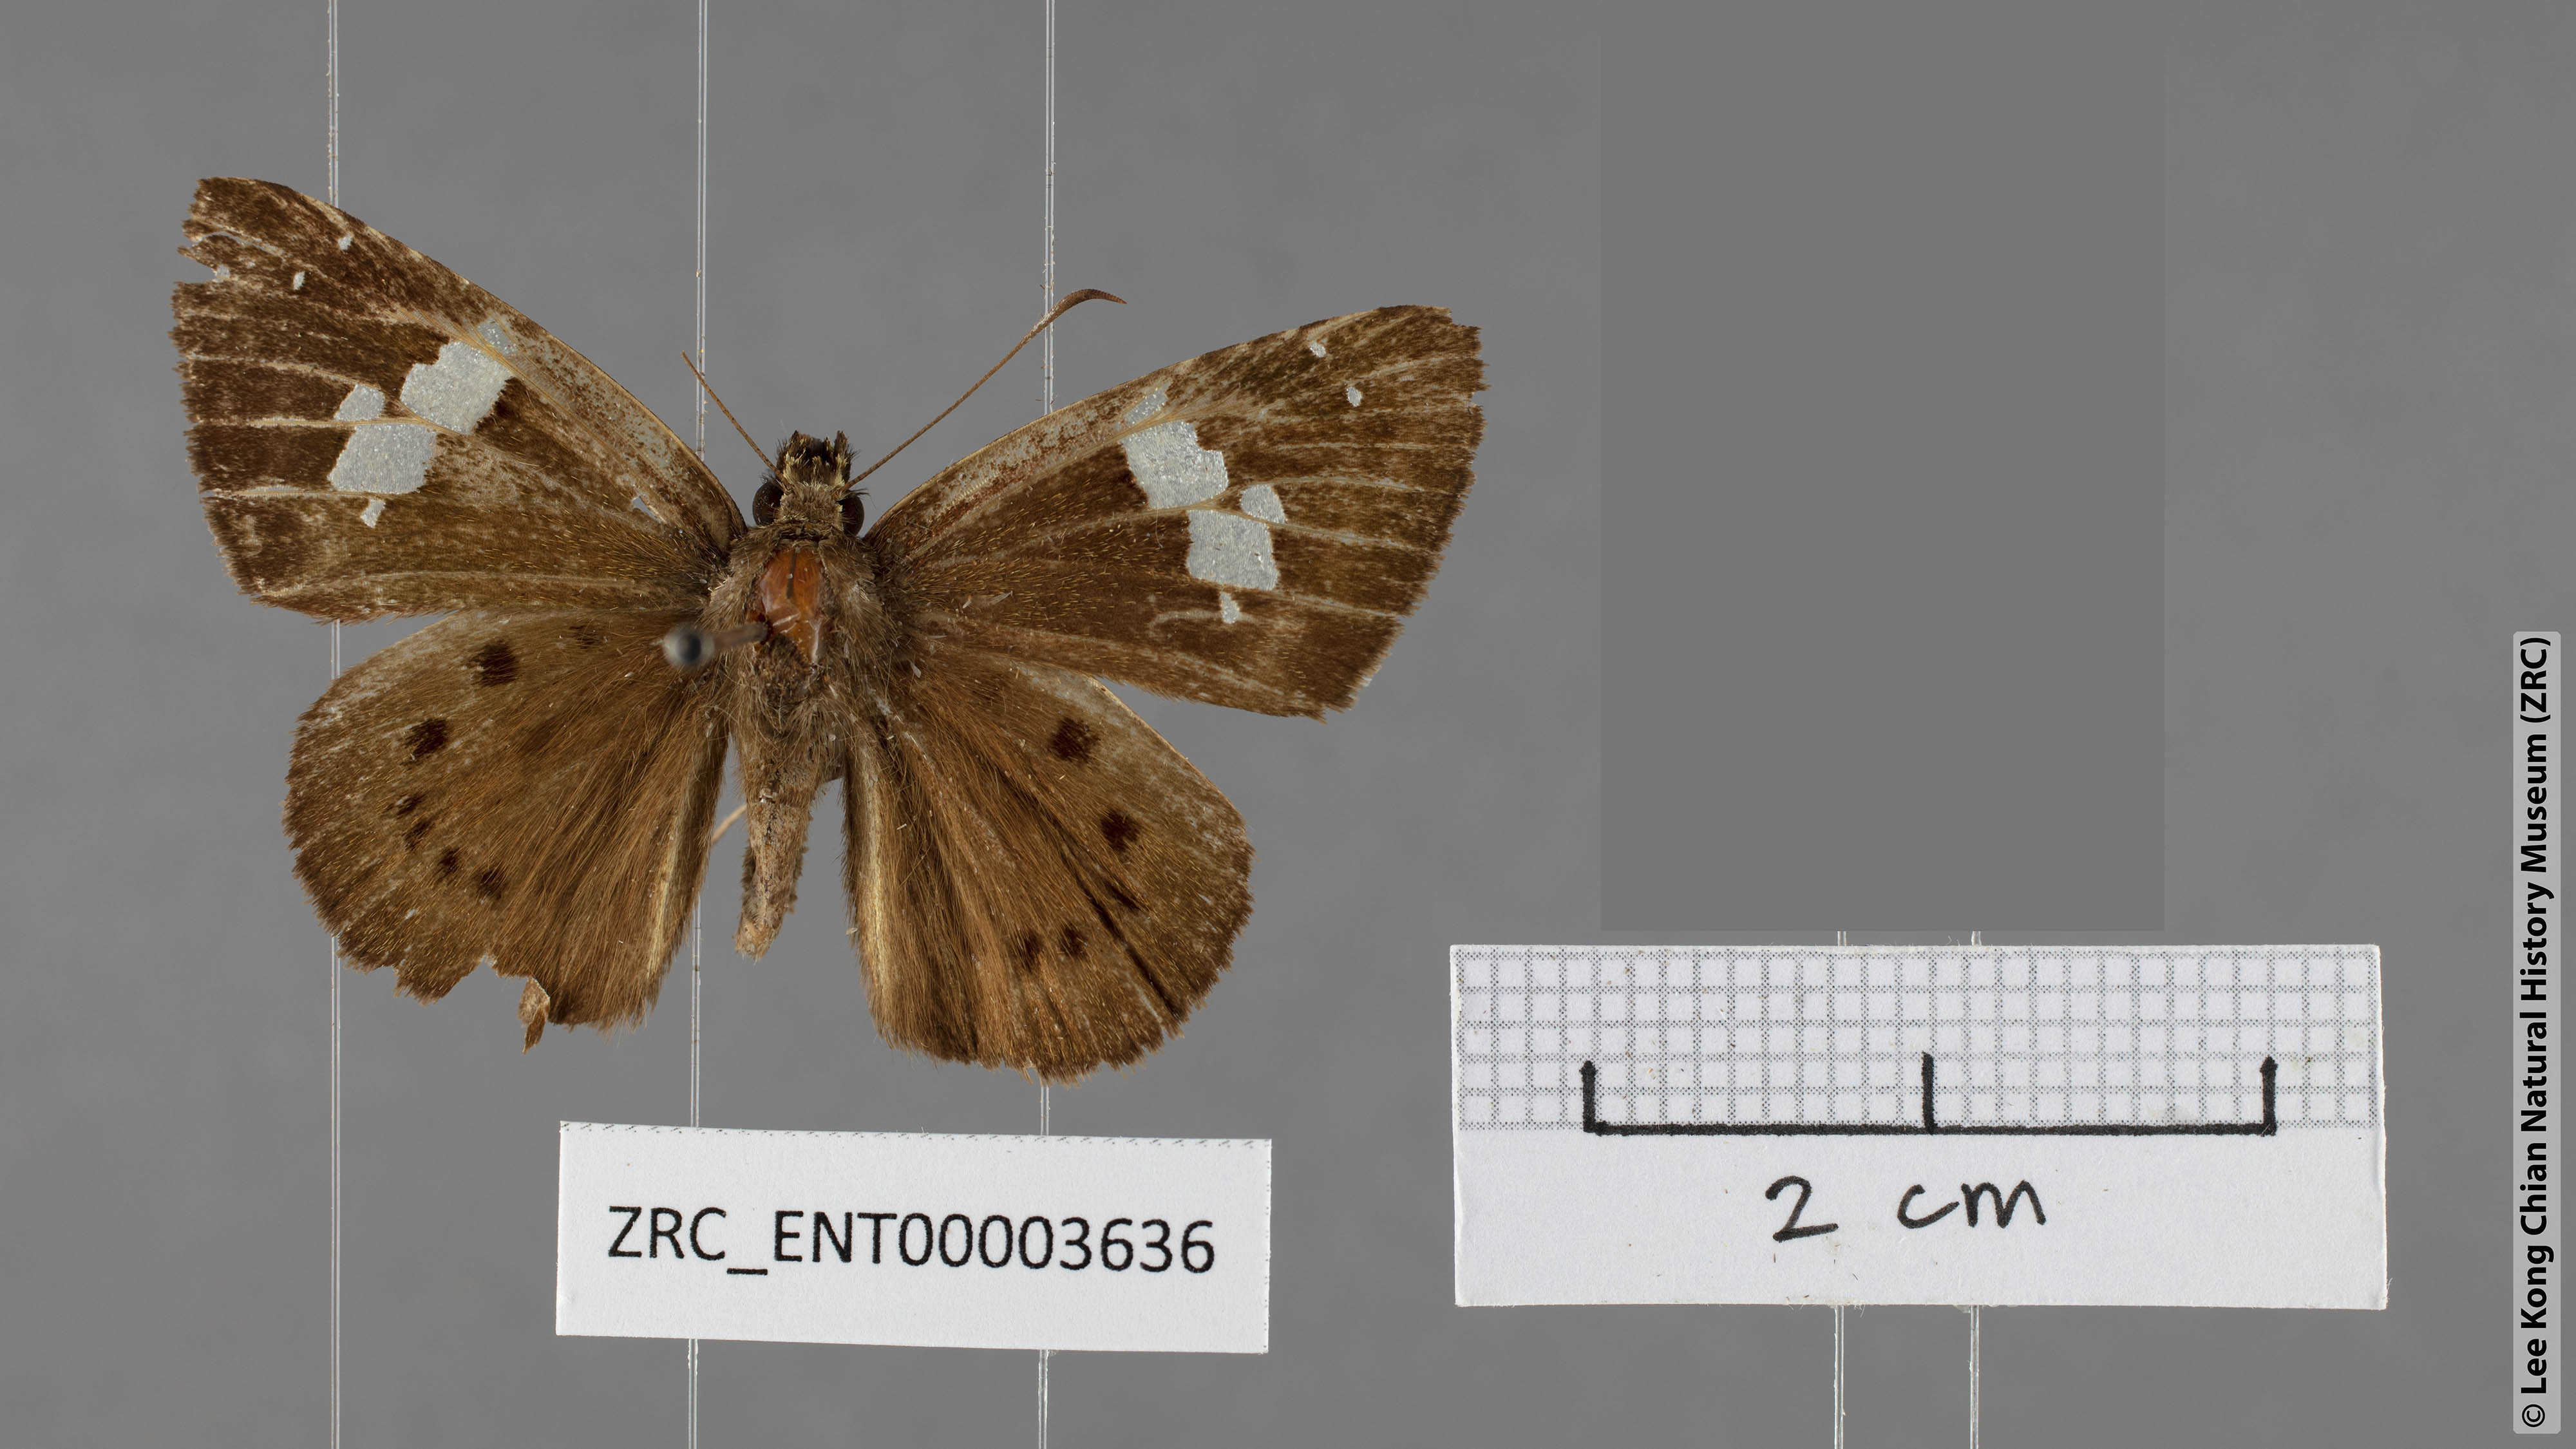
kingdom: Animalia
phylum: Arthropoda
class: Insecta
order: Lepidoptera
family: Hesperiidae
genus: Coladenia
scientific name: Coladenia agnioides
